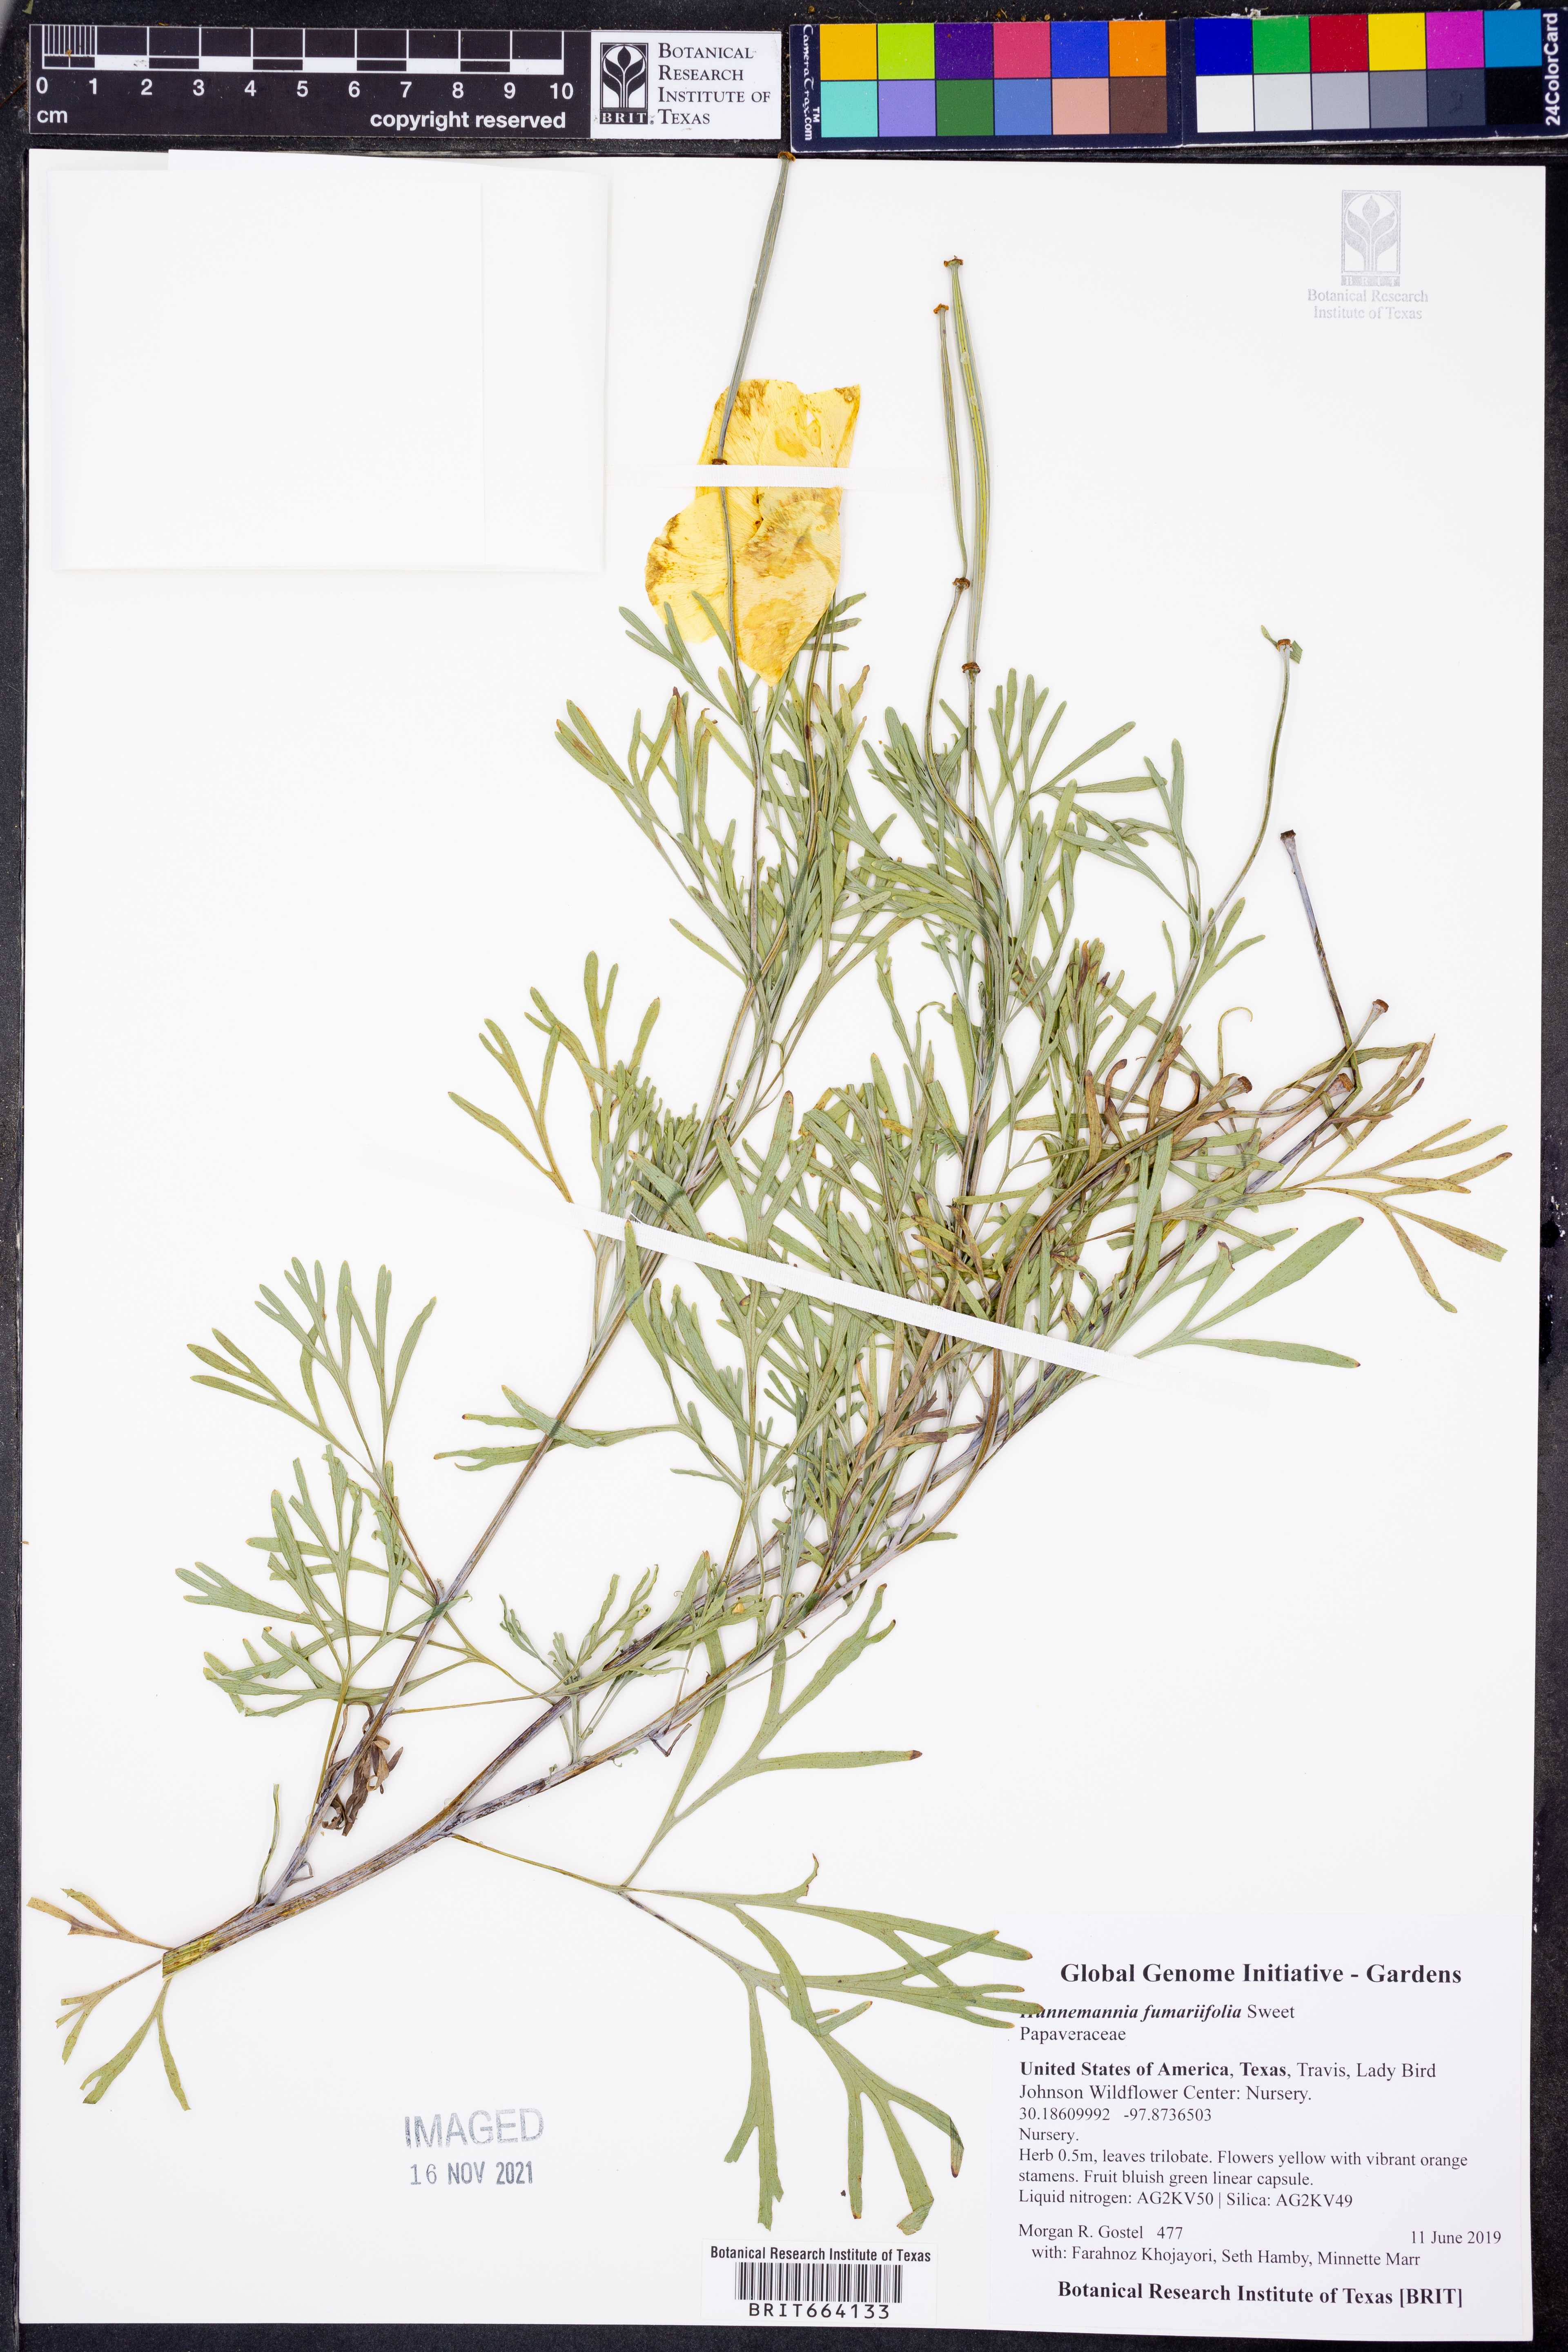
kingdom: Plantae
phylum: Tracheophyta
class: Magnoliopsida
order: Ranunculales
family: Papaveraceae
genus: Hunnemannia
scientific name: Hunnemannia fumariifolia
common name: Mexican tulip poppy
